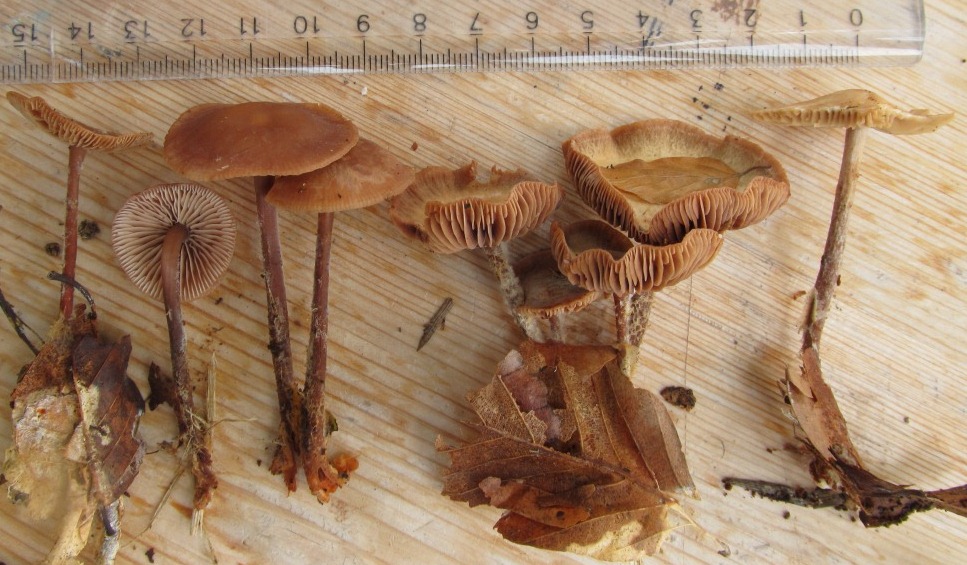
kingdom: Fungi
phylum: Basidiomycota
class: Agaricomycetes
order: Agaricales
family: Omphalotaceae
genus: Gymnopus
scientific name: Gymnopus fagiphilus
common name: bøgeløv-fladhat
